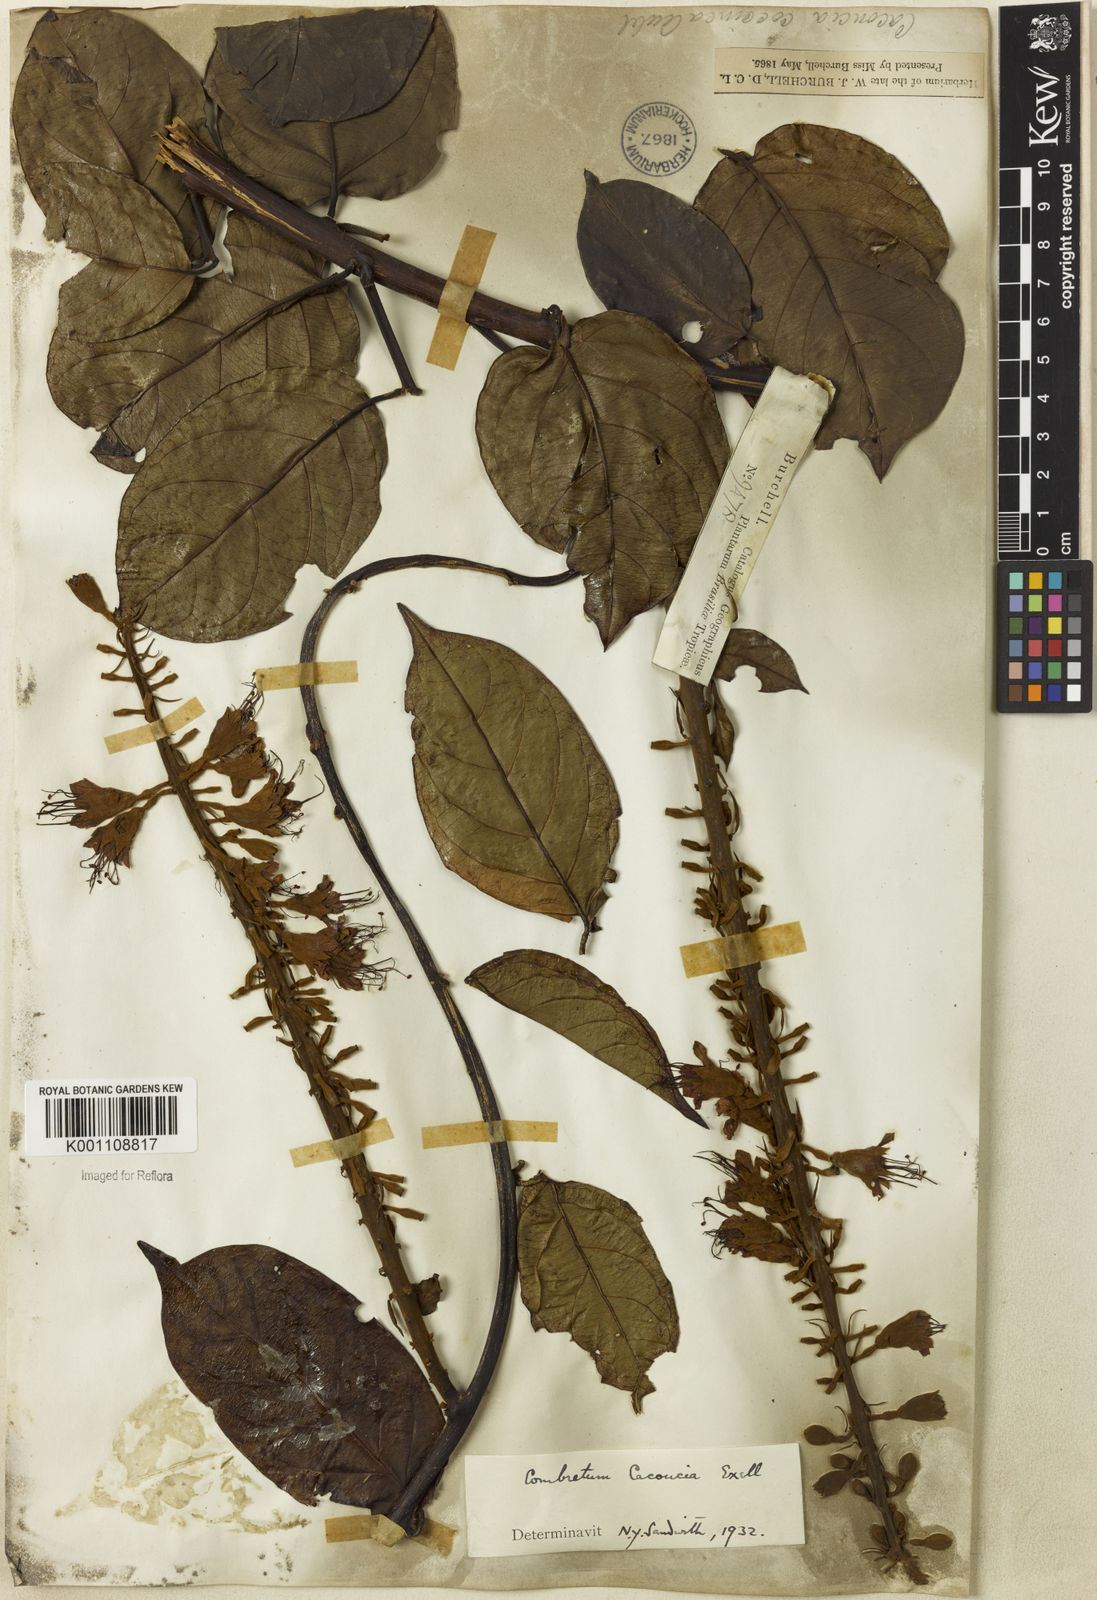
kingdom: Plantae
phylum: Tracheophyta
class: Magnoliopsida
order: Myrtales
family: Combretaceae
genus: Combretum
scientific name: Combretum
